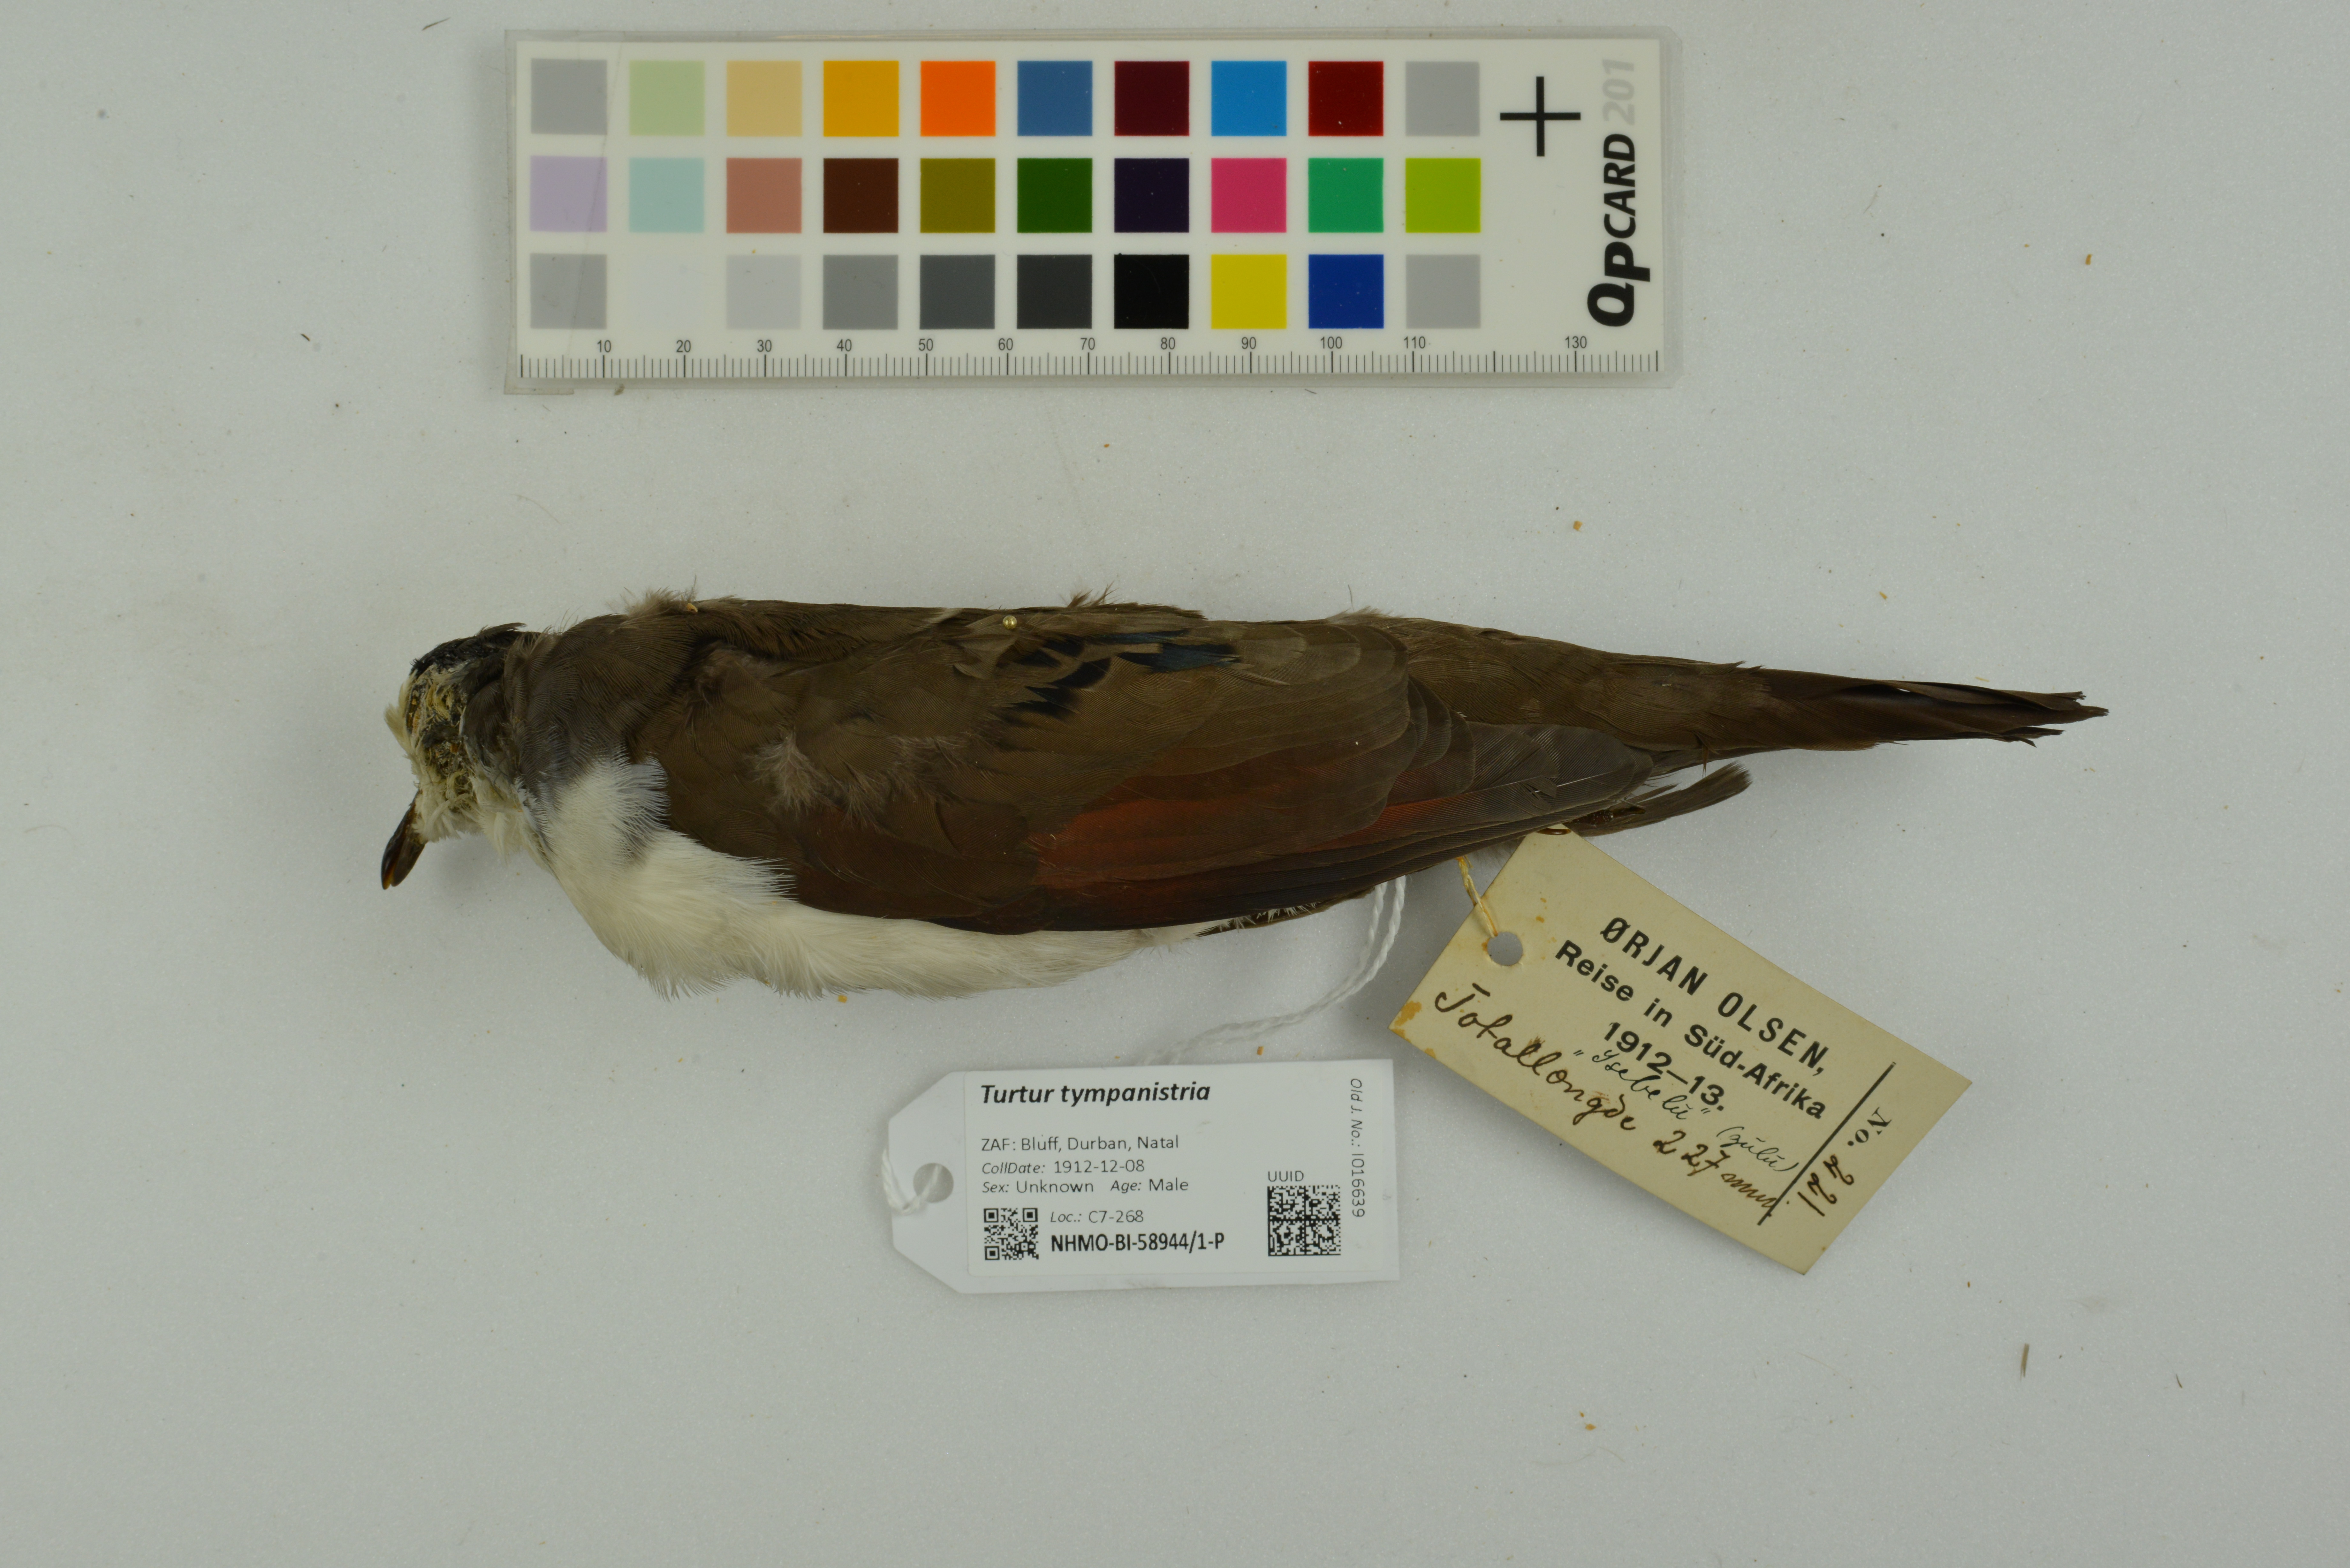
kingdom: Animalia
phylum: Chordata
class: Aves
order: Columbiformes
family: Columbidae
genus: Turtur
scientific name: Turtur tympanistria
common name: Tambourine dove
